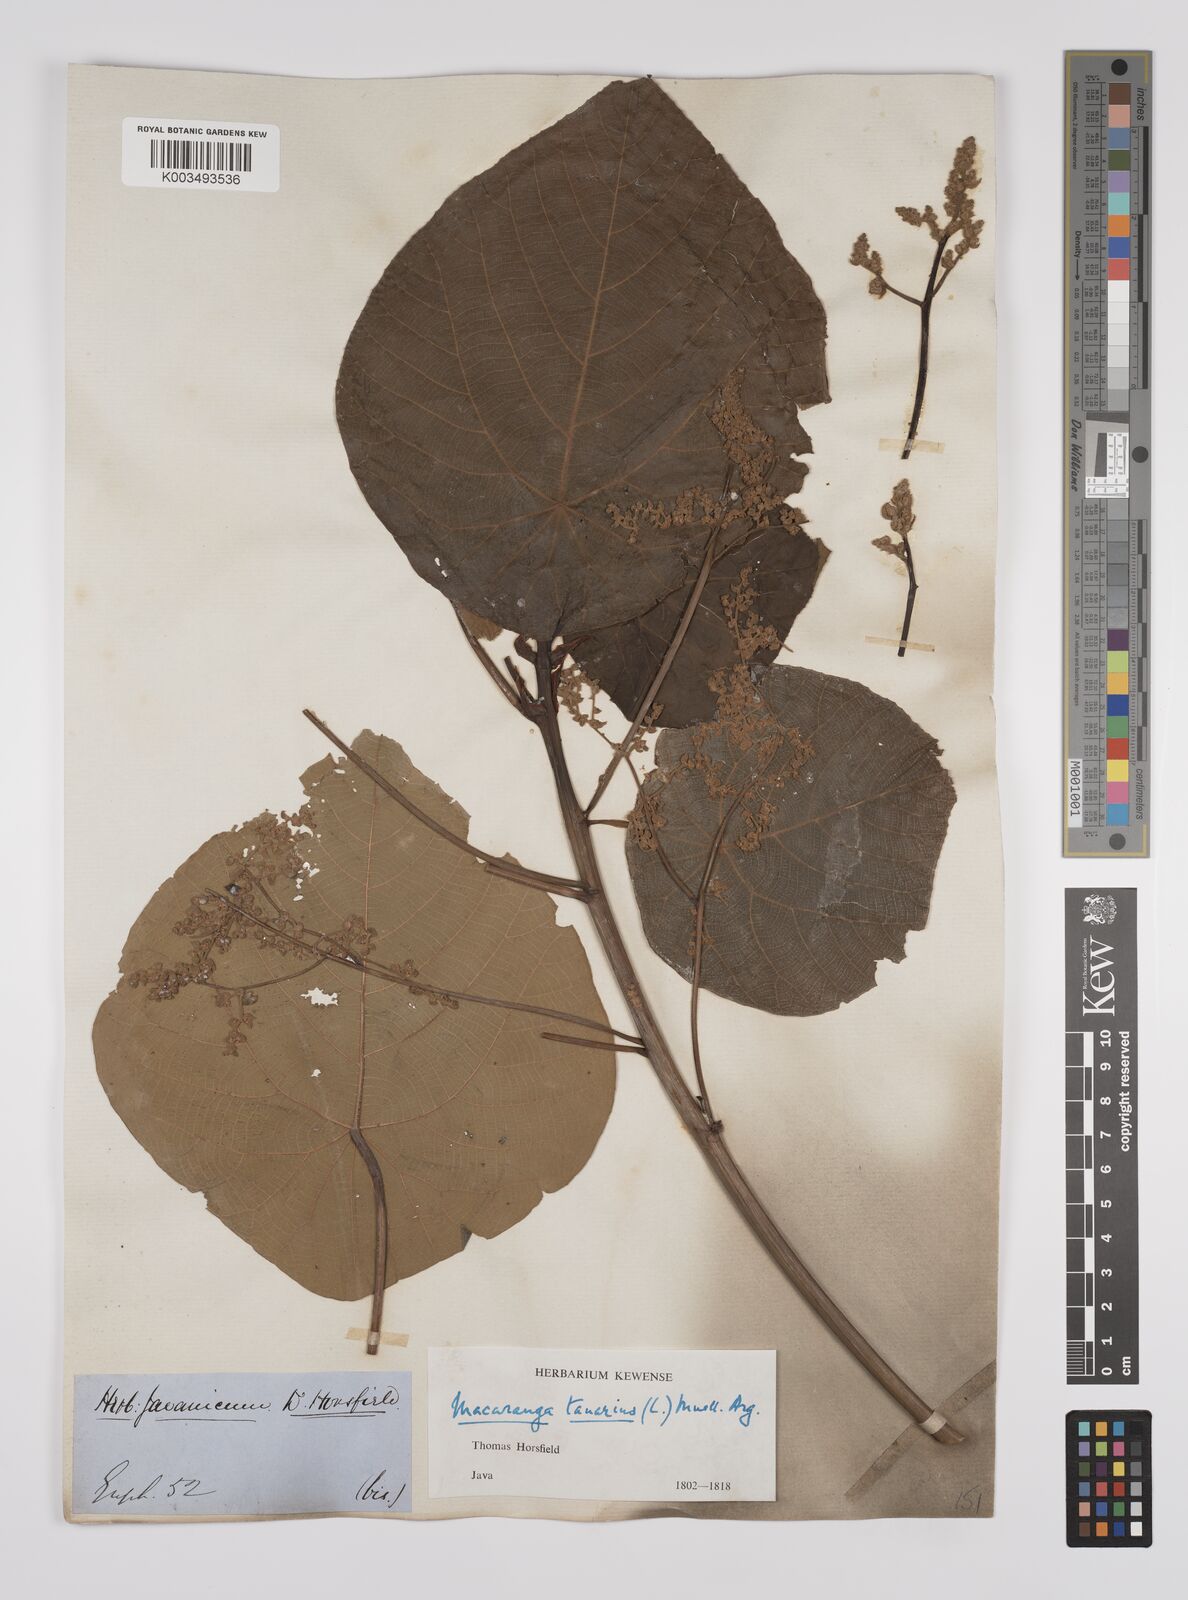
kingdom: Plantae
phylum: Tracheophyta
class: Magnoliopsida
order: Malpighiales
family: Euphorbiaceae
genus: Macaranga
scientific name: Macaranga tanarius
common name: Parasol leaf tree
